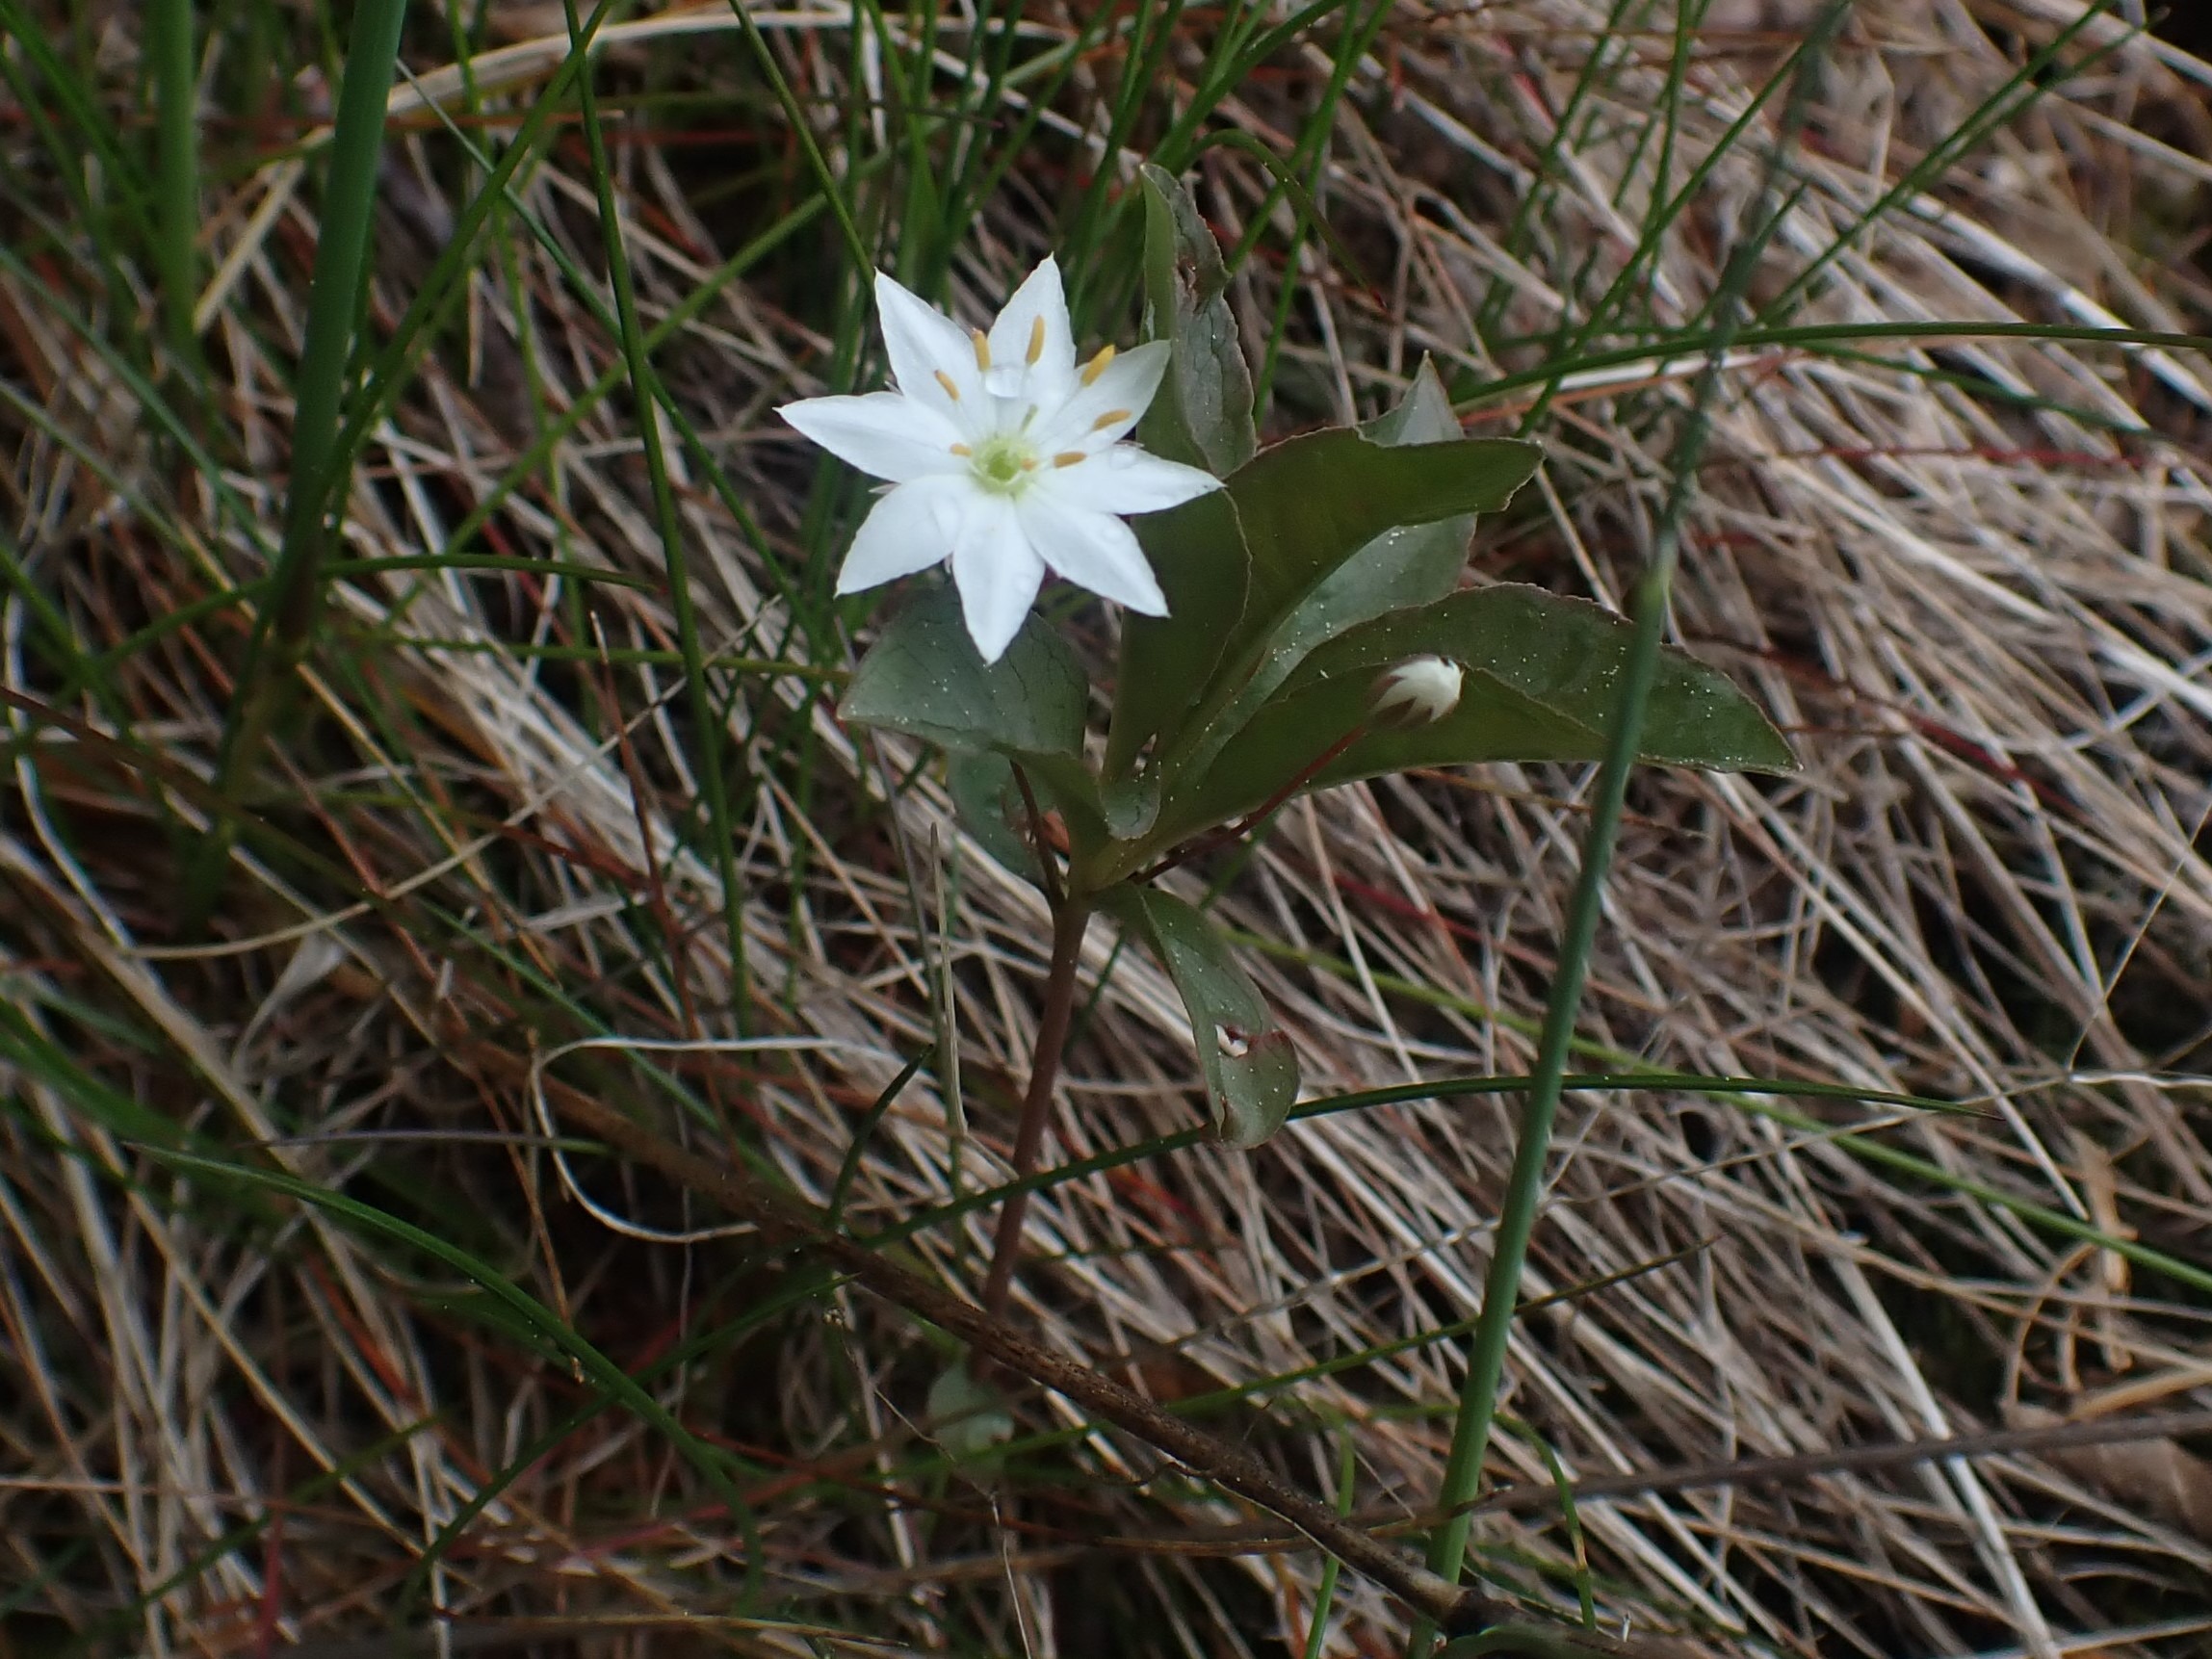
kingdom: Plantae
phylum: Tracheophyta
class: Magnoliopsida
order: Ericales
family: Primulaceae
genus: Lysimachia
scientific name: Lysimachia europaea
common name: Skovstjerne
